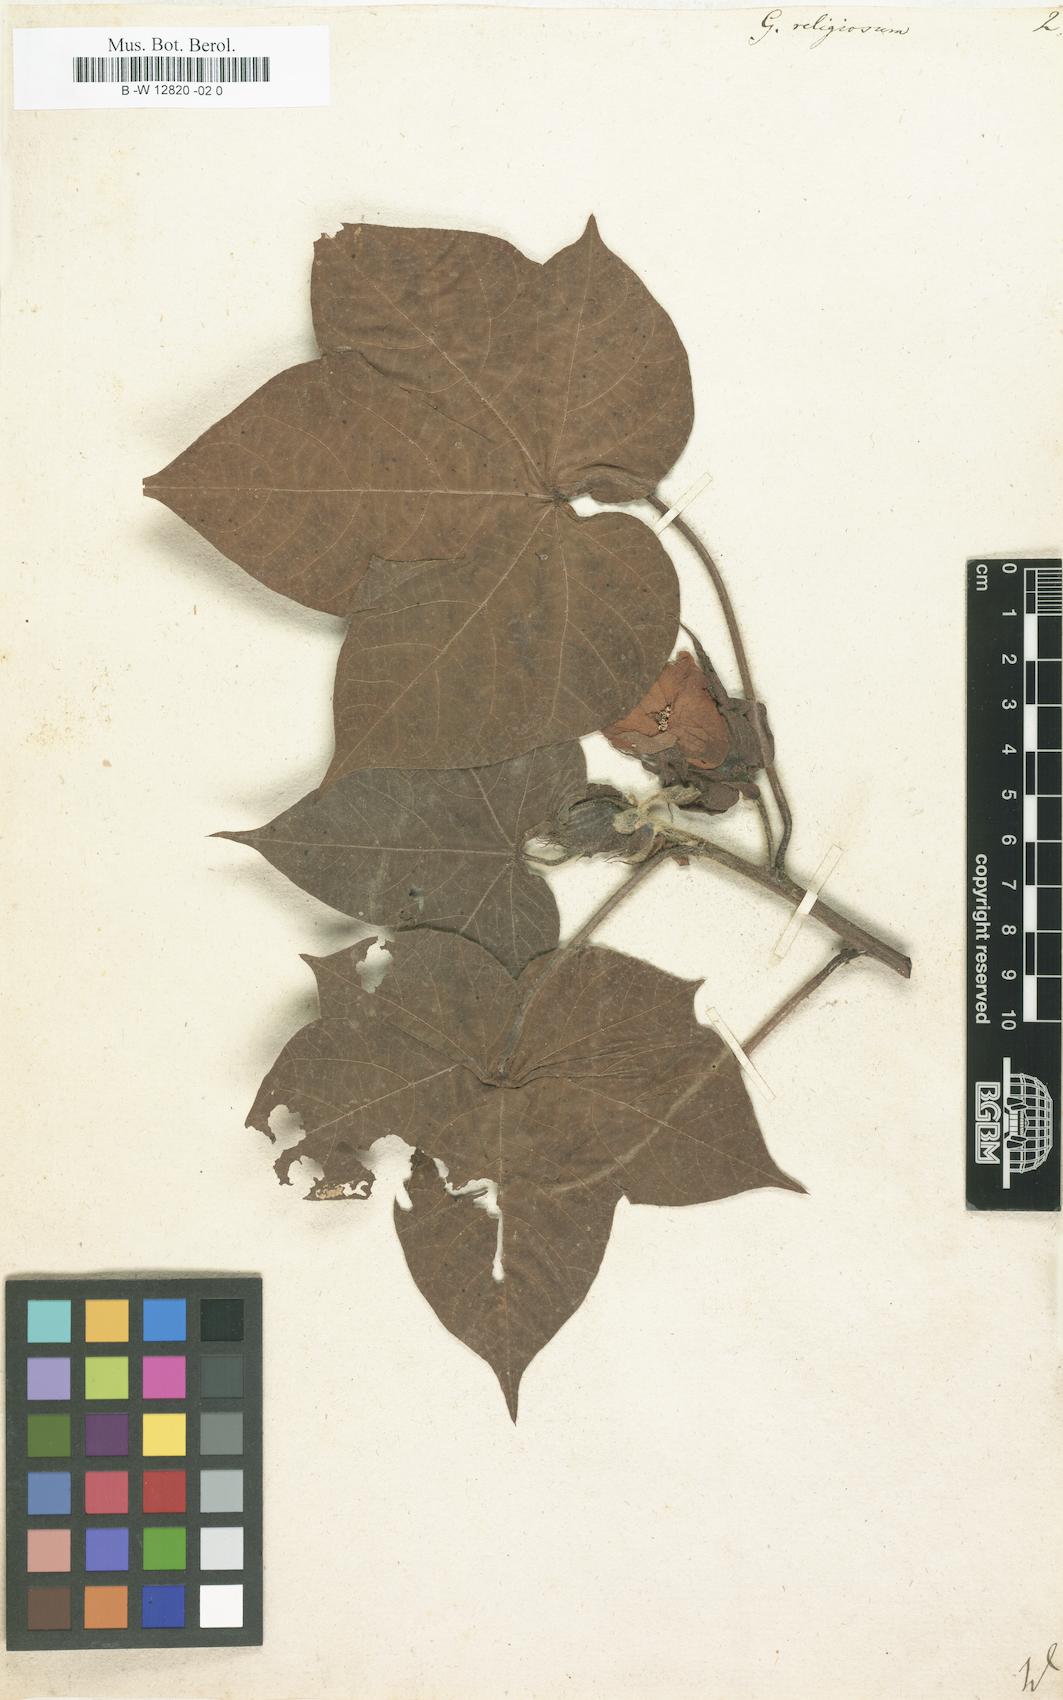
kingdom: Plantae
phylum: Tracheophyta
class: Magnoliopsida
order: Malvales
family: Malvaceae
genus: Gossypium
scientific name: Gossypium
